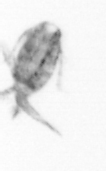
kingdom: Animalia
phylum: Arthropoda
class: Copepoda
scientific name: Copepoda
